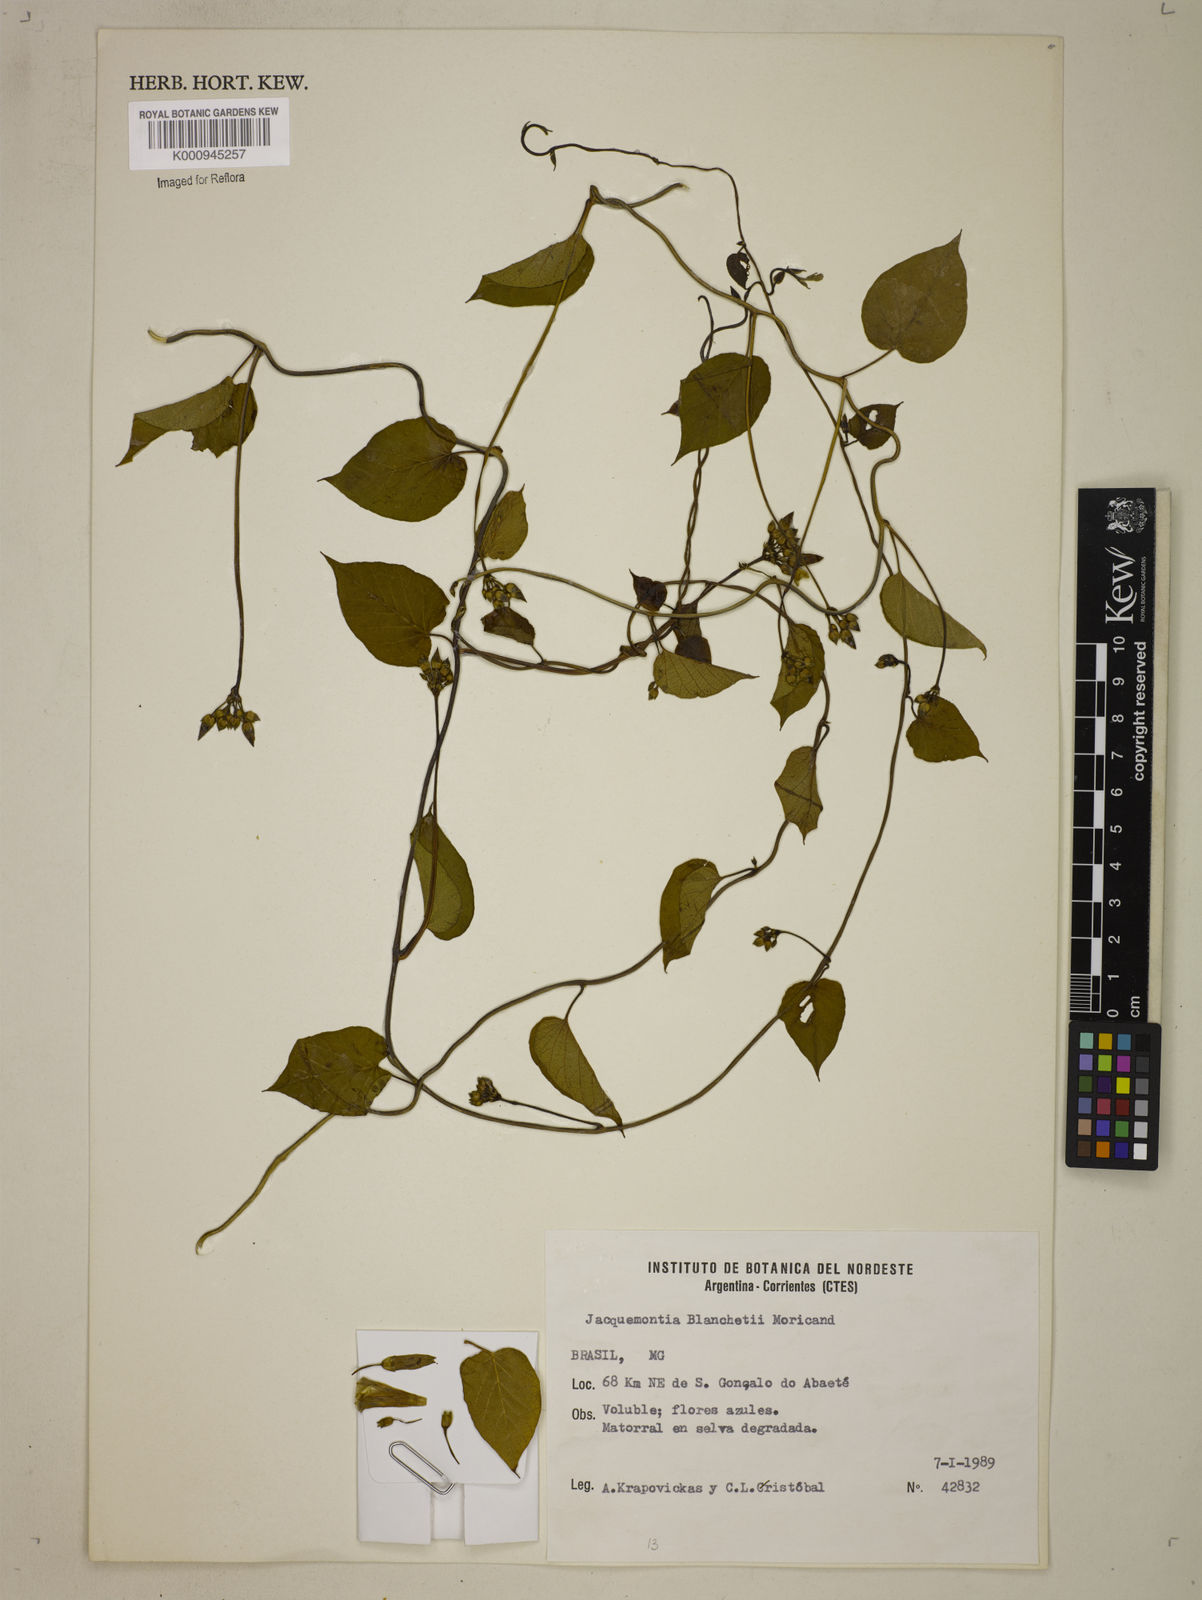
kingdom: Plantae
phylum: Tracheophyta
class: Magnoliopsida
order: Solanales
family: Convolvulaceae
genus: Jacquemontia
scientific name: Jacquemontia blanchetii
